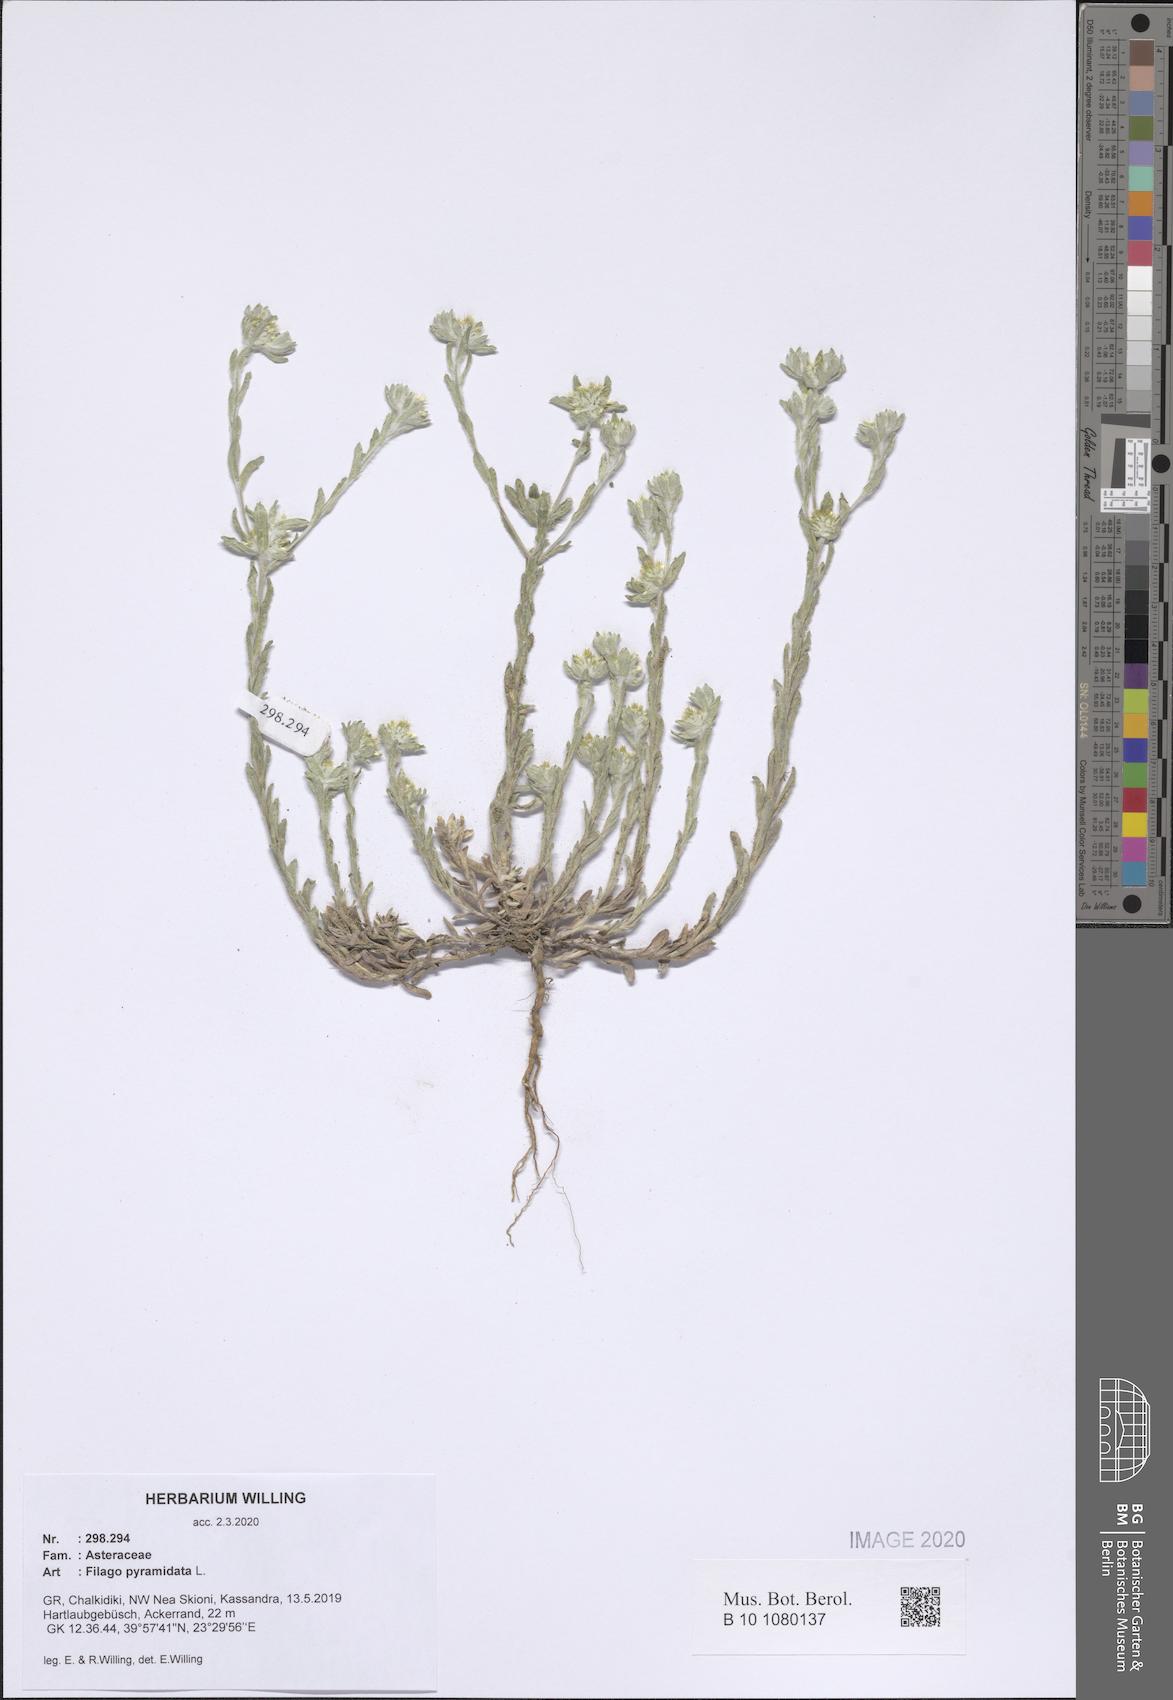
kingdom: Plantae
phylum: Tracheophyta
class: Magnoliopsida
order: Asterales
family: Asteraceae
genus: Filago
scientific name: Filago pyramidata
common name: Broad-leaved cudweed
